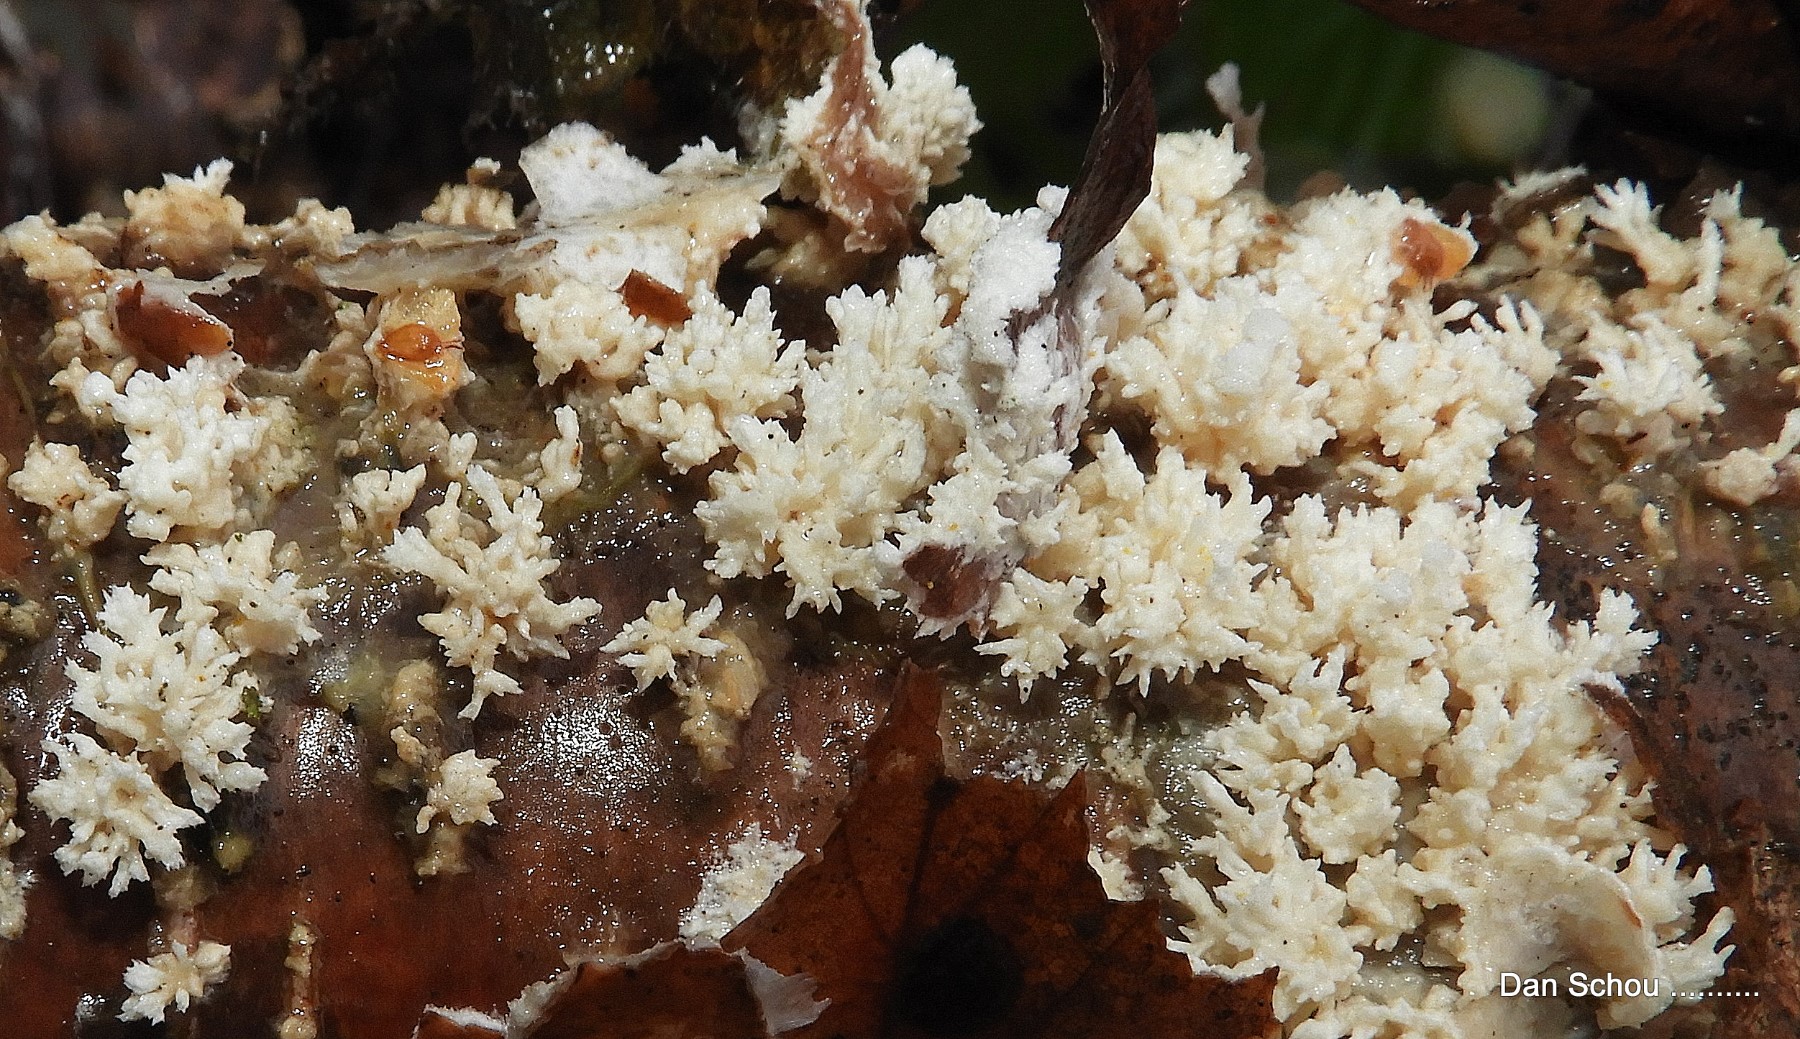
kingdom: Fungi
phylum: Basidiomycota
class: Agaricomycetes
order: Corticiales
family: Corticiaceae
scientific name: Corticiaceae
